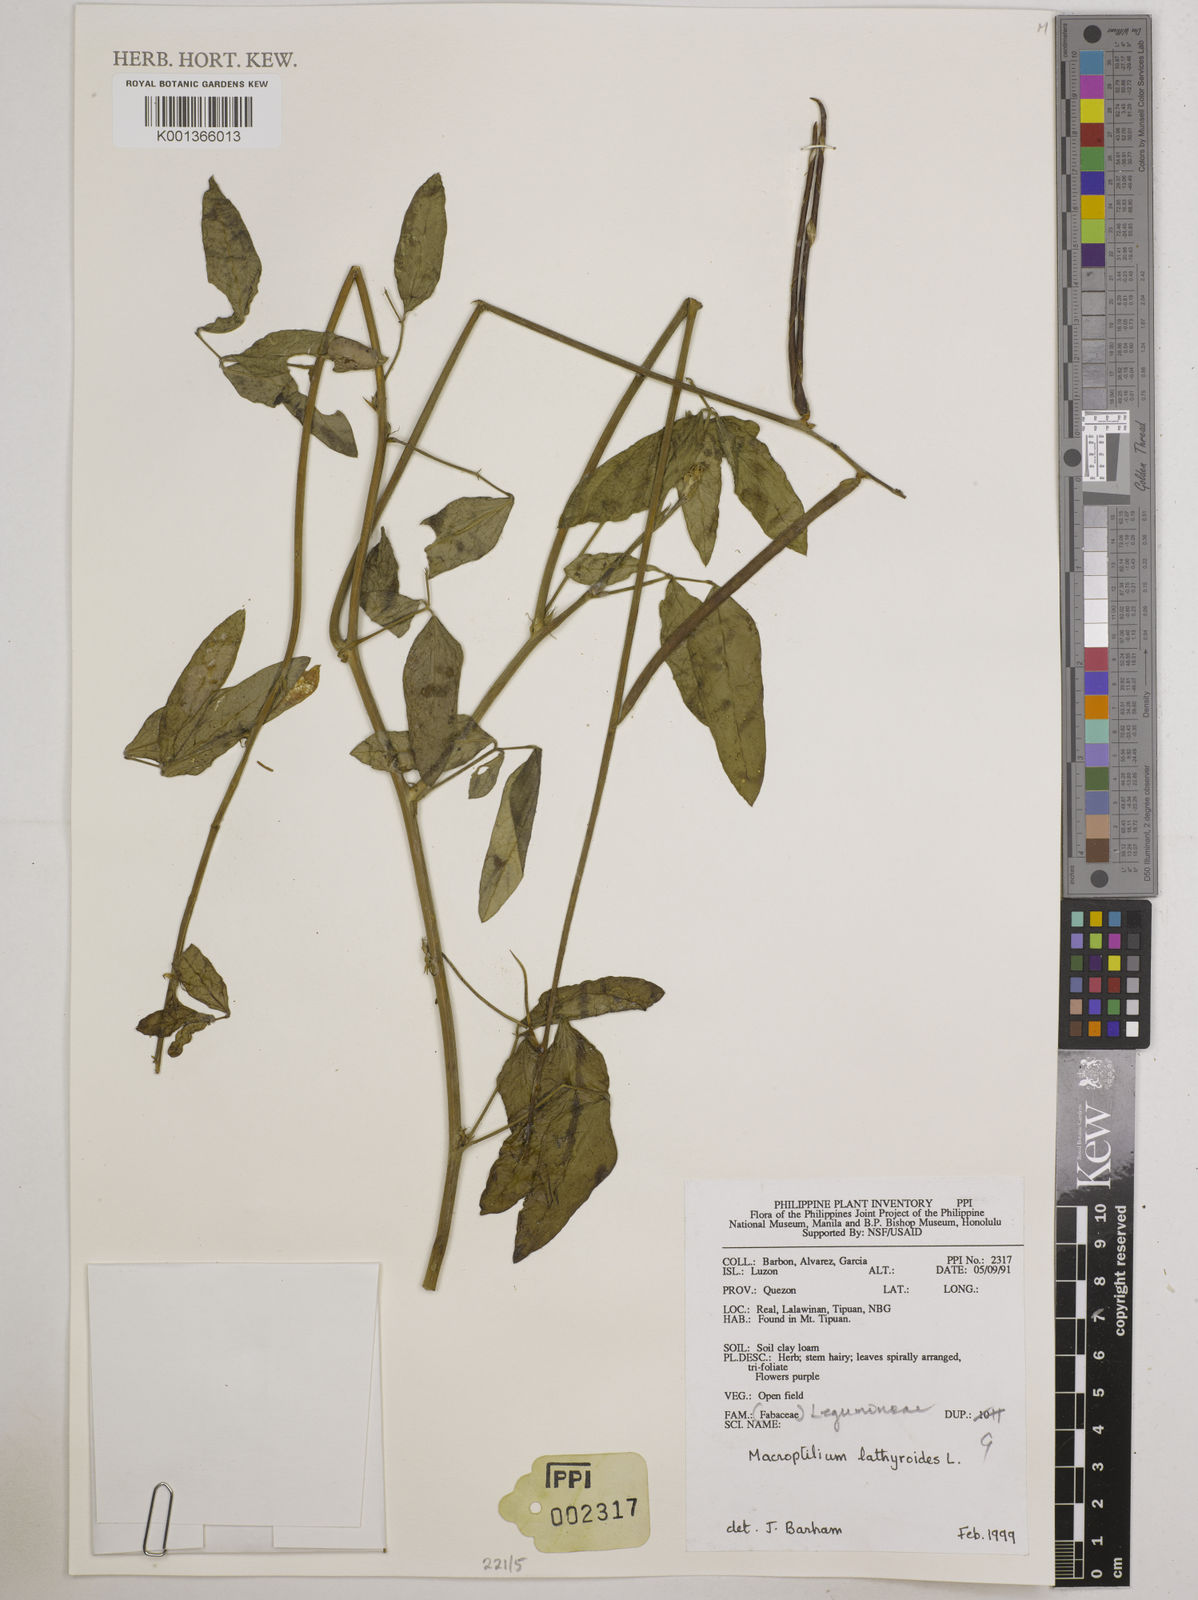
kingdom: Plantae
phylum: Tracheophyta
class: Magnoliopsida
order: Fabales
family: Fabaceae
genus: Macroptilium
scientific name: Macroptilium lathyroides
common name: Wild bushbean
